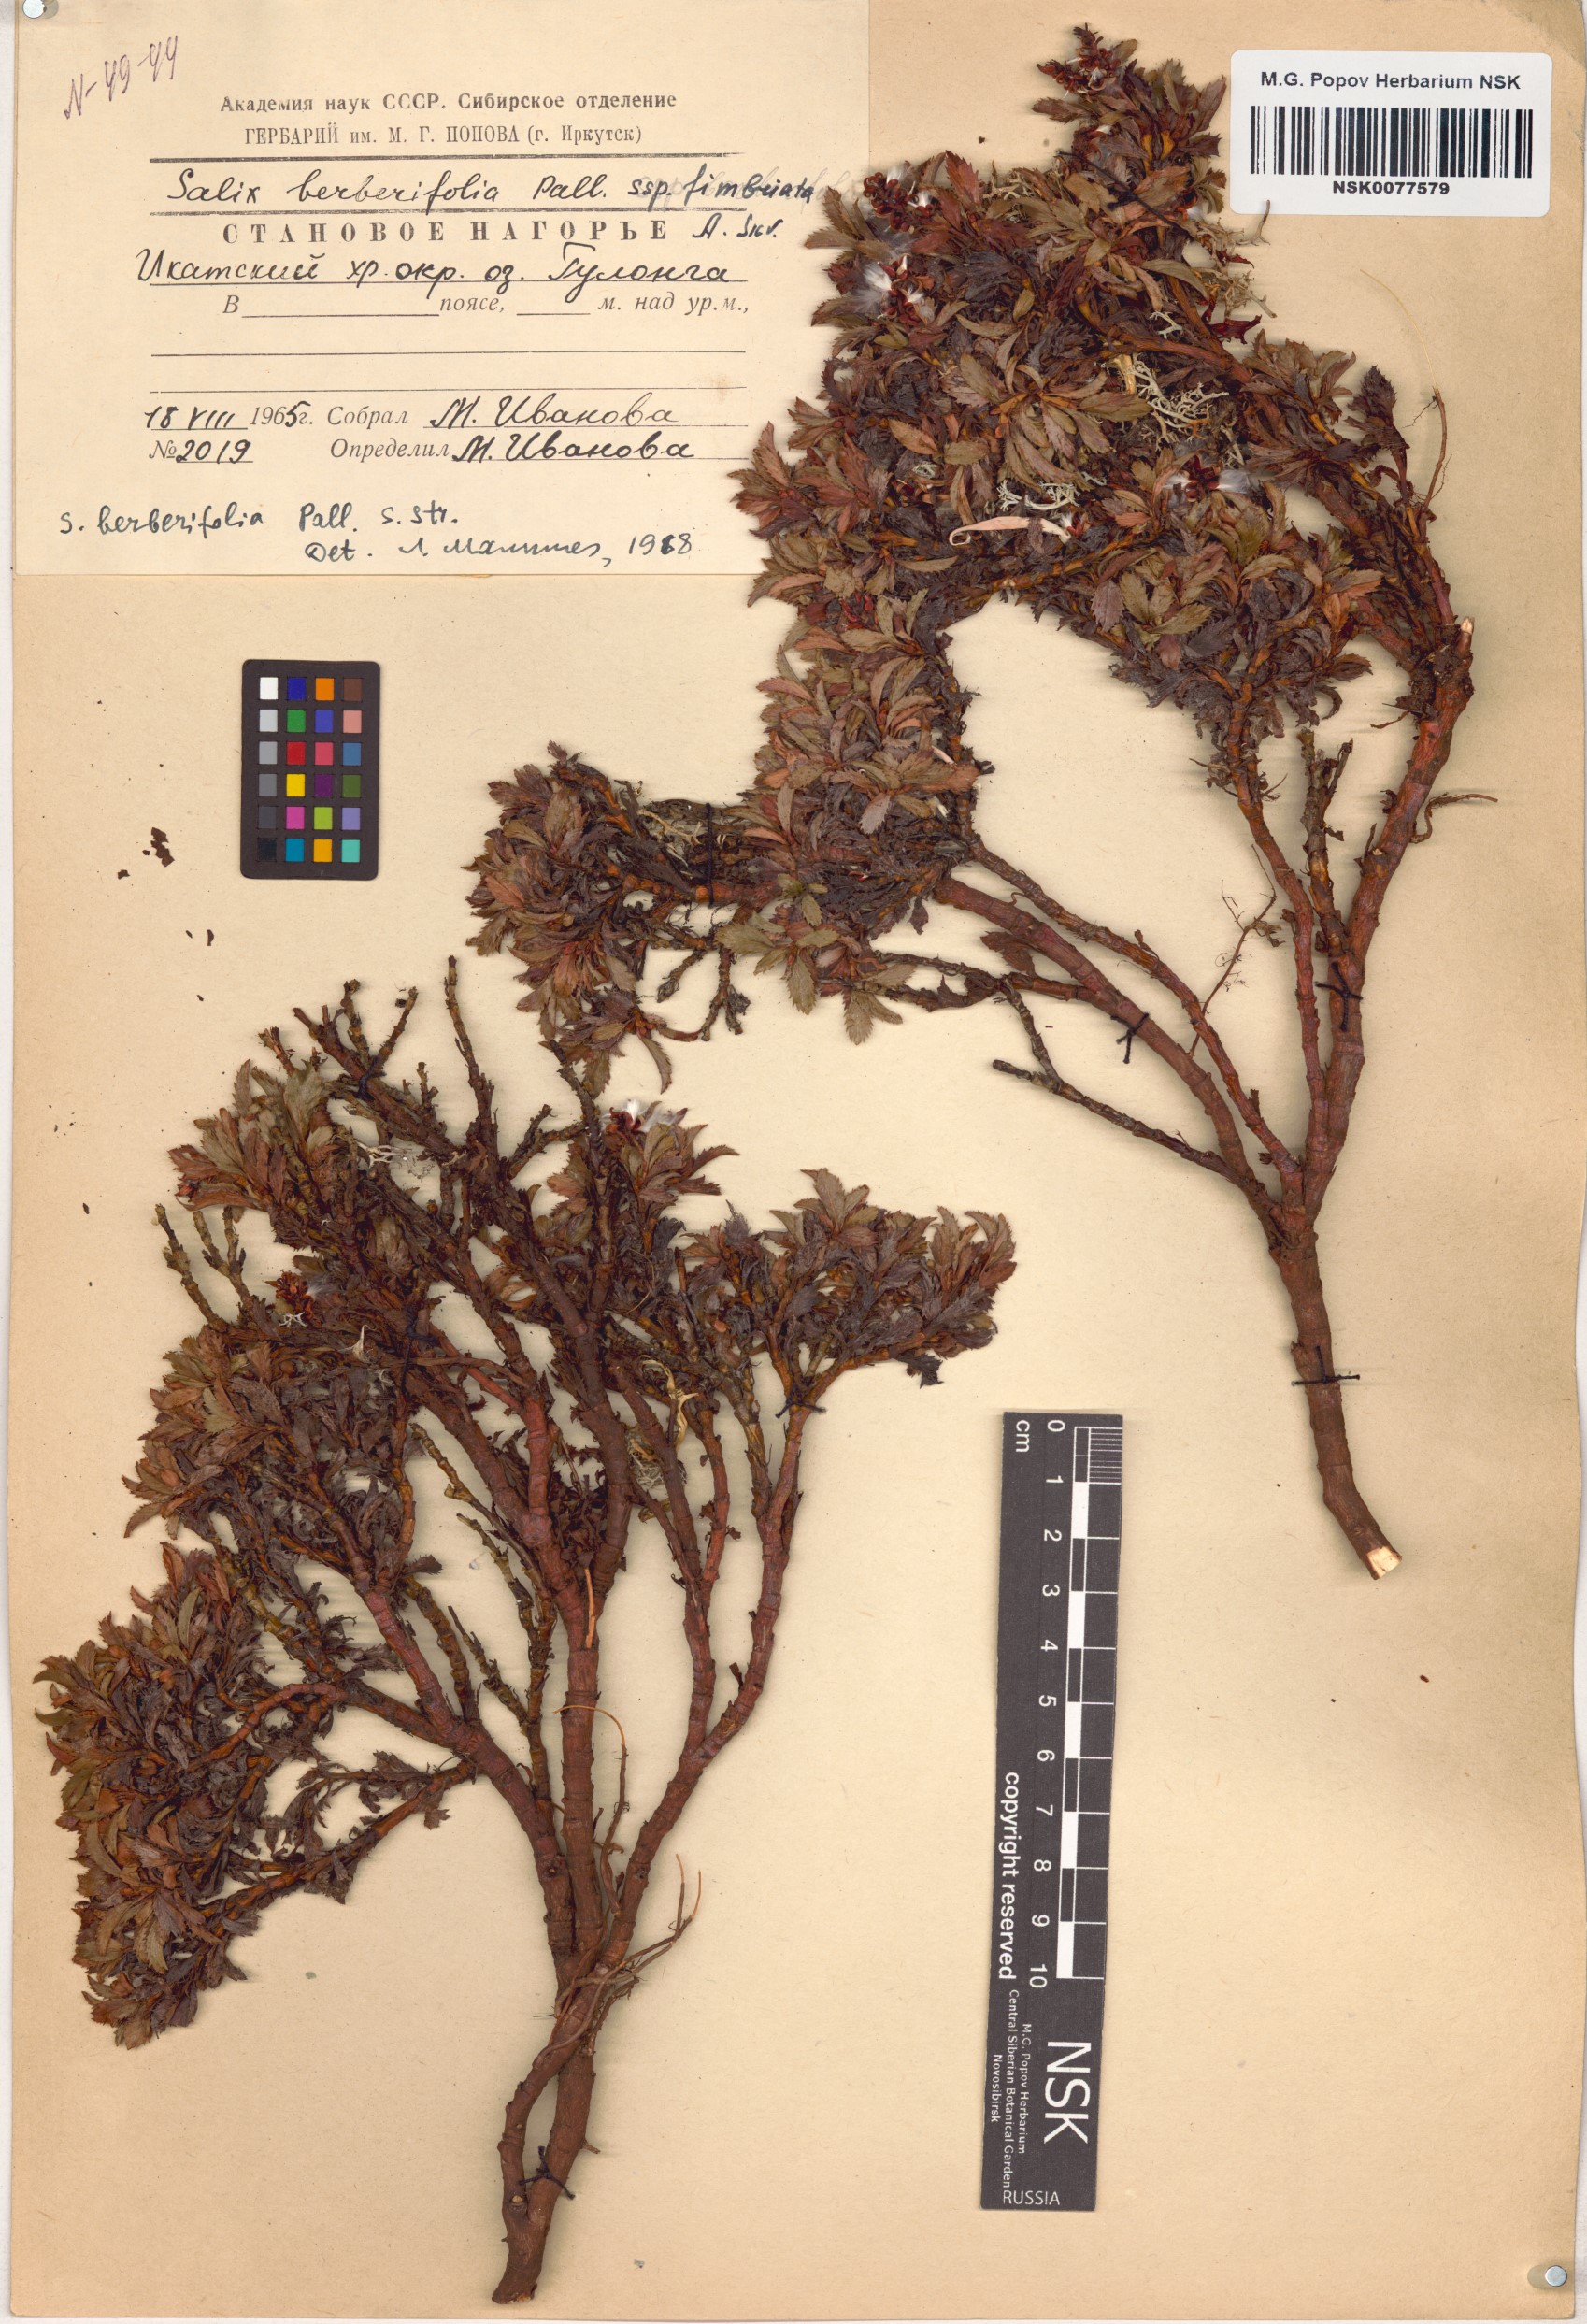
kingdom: Plantae
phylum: Tracheophyta
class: Magnoliopsida
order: Malpighiales
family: Salicaceae
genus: Salix
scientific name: Salix berberifolia
